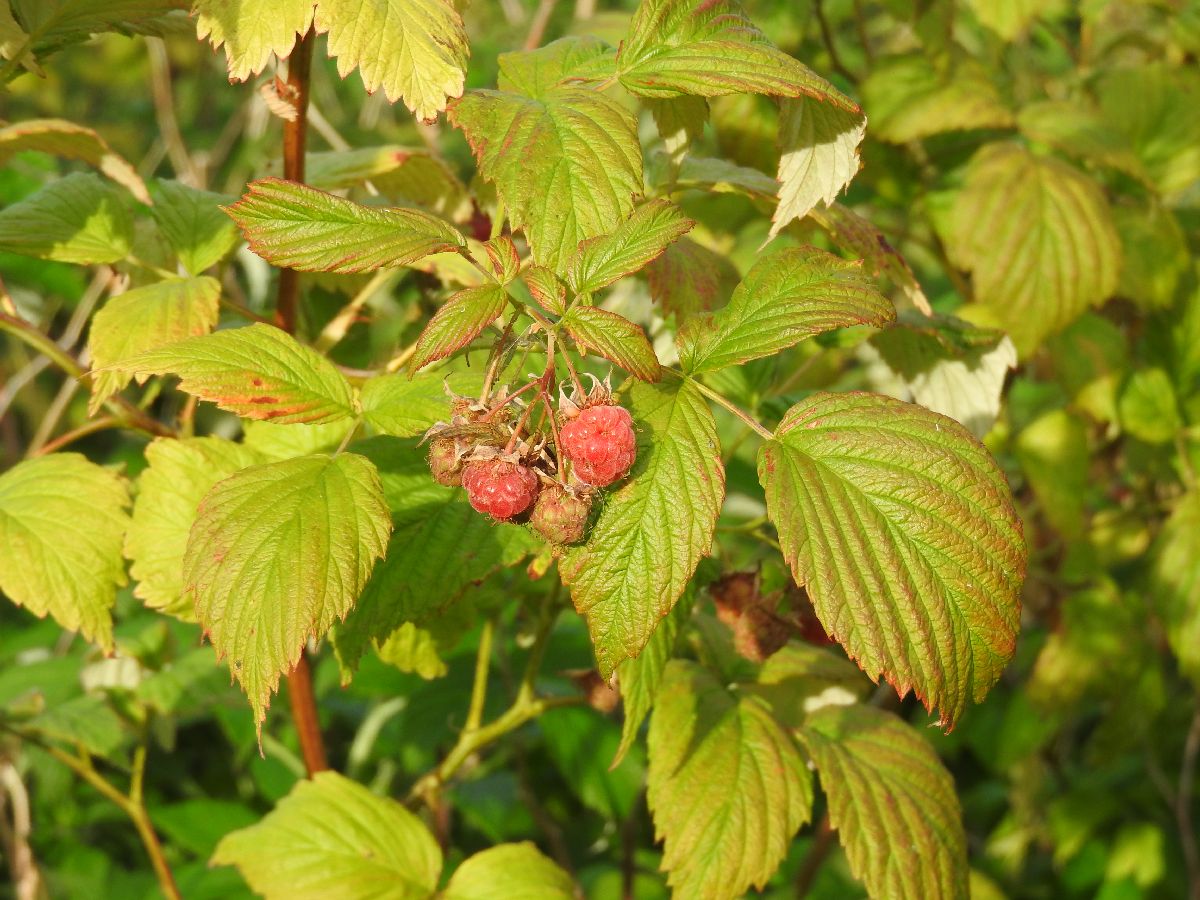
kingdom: Plantae
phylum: Tracheophyta
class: Magnoliopsida
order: Rosales
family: Rosaceae
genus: Rubus
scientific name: Rubus idaeus
